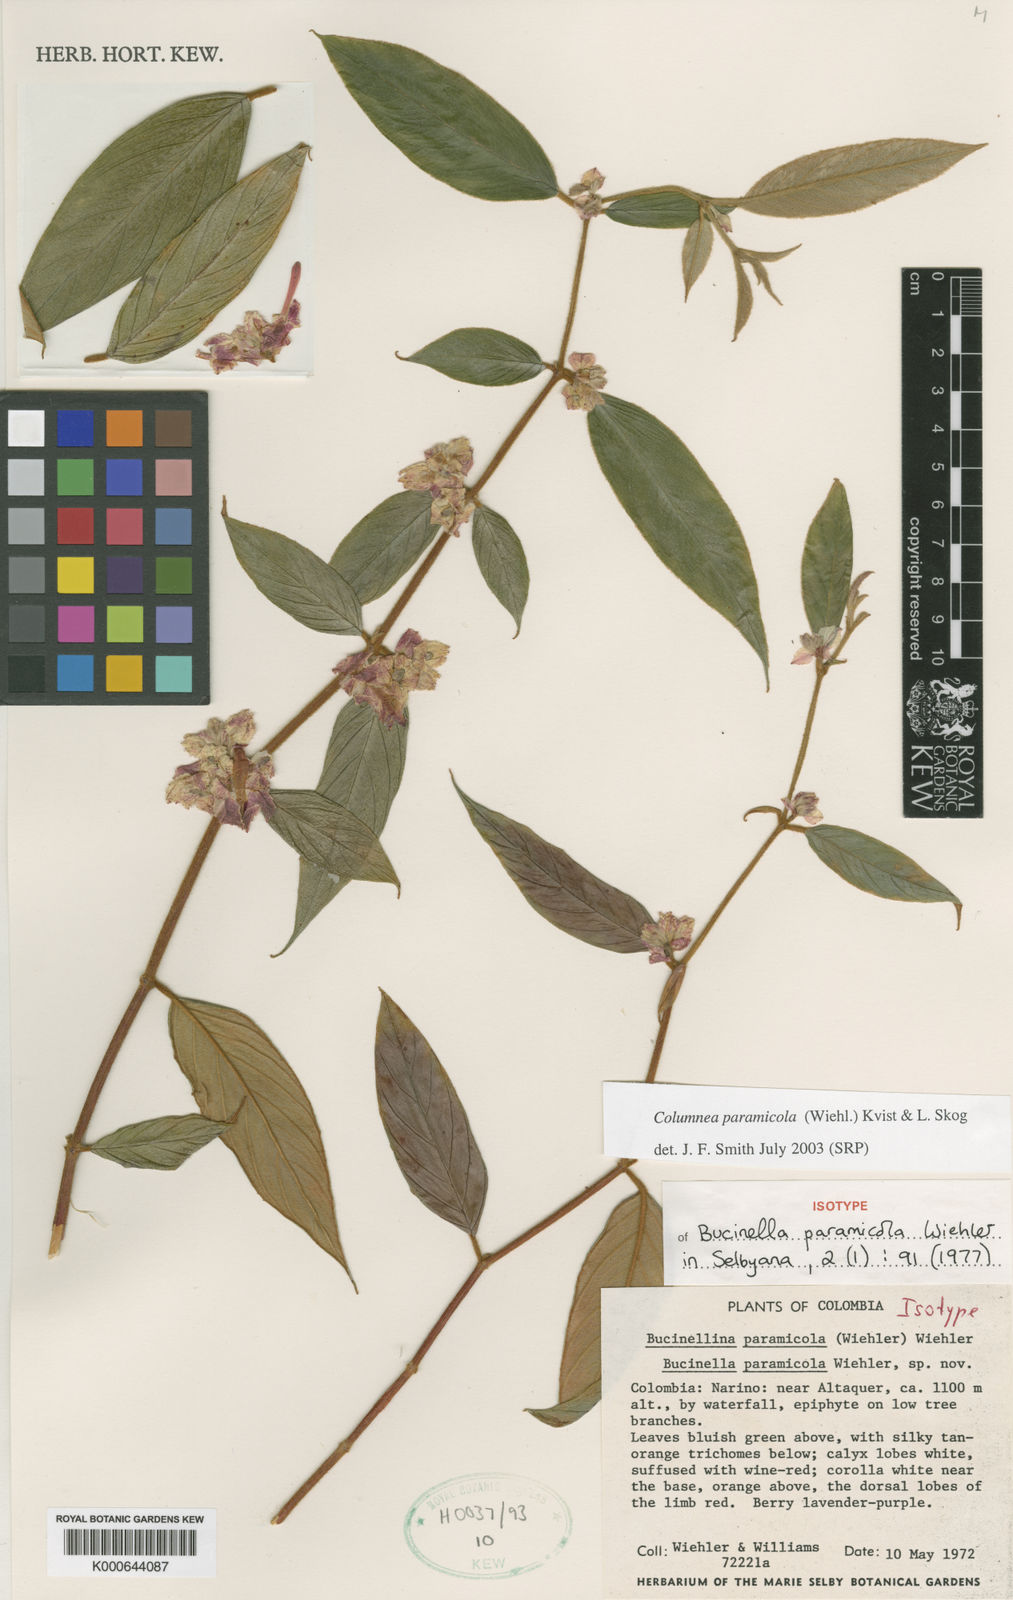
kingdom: Plantae
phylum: Tracheophyta
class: Magnoliopsida
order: Lamiales
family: Gesneriaceae
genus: Columnea
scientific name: Columnea paramicola
